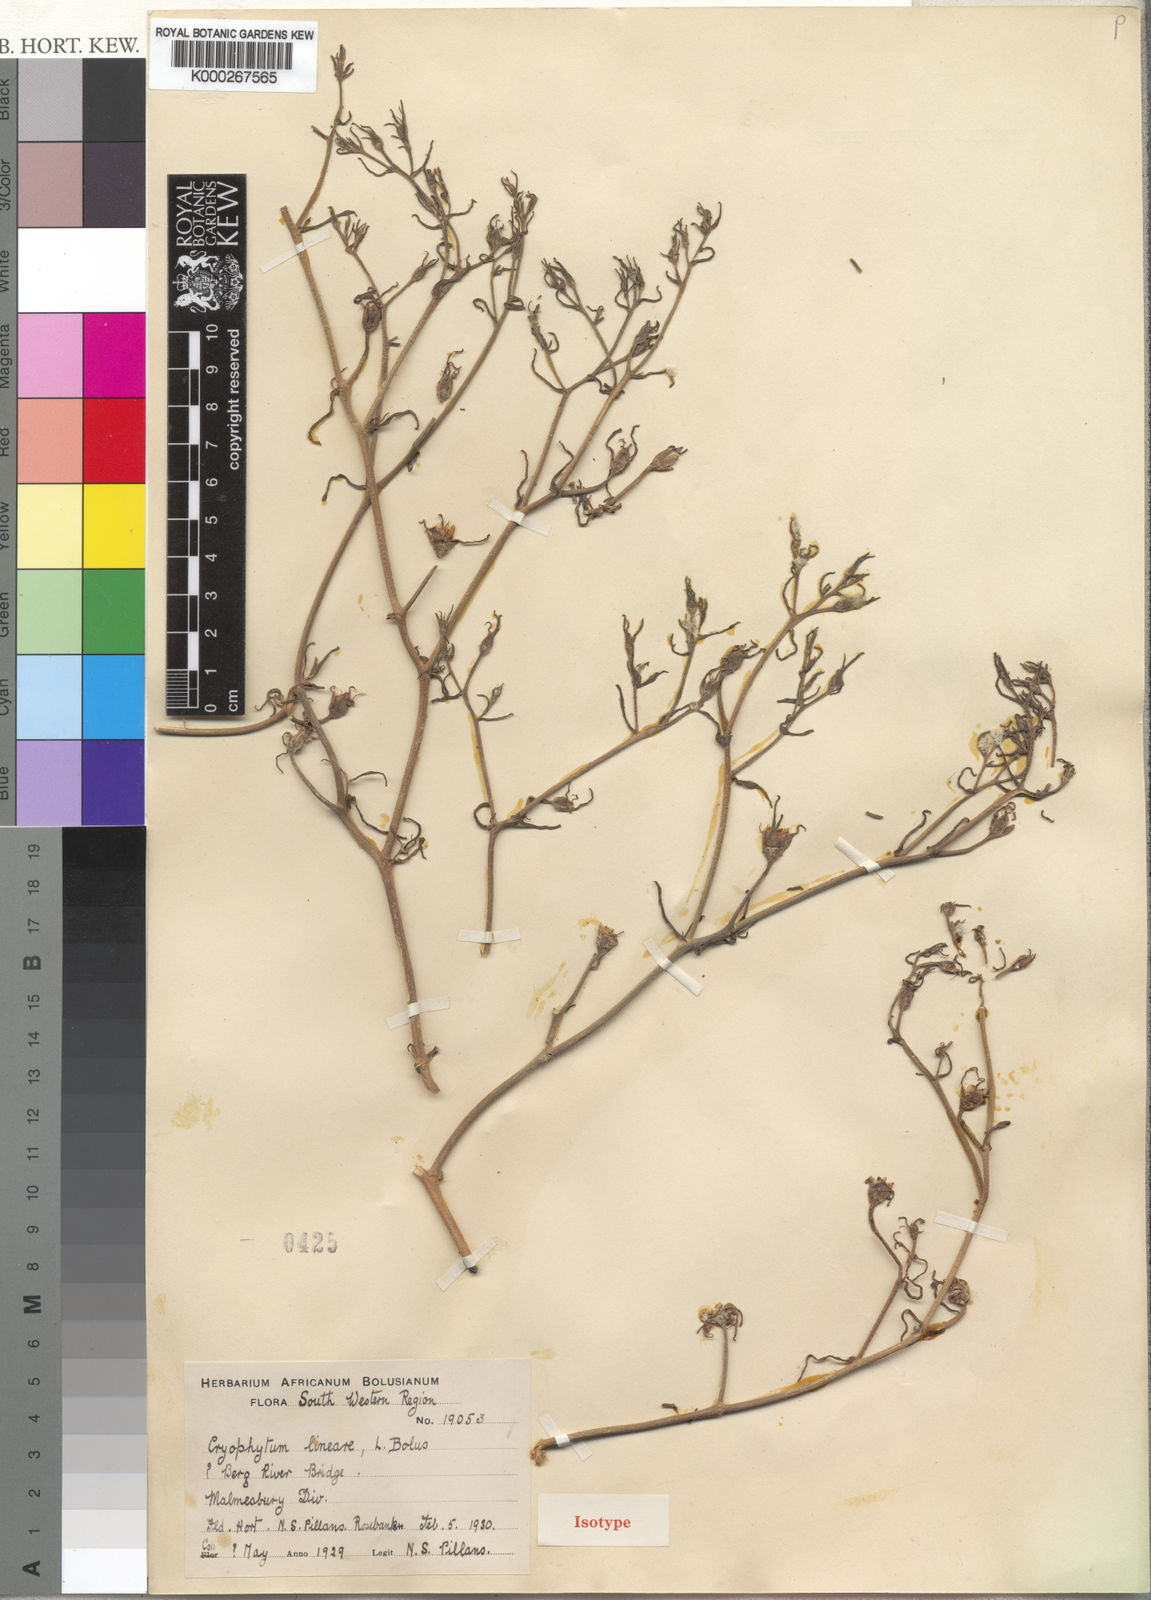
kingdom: Plantae
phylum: Tracheophyta
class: Magnoliopsida
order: Caryophyllales
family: Aizoaceae
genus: Mesembryanthemum
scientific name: Mesembryanthemum longistylum
